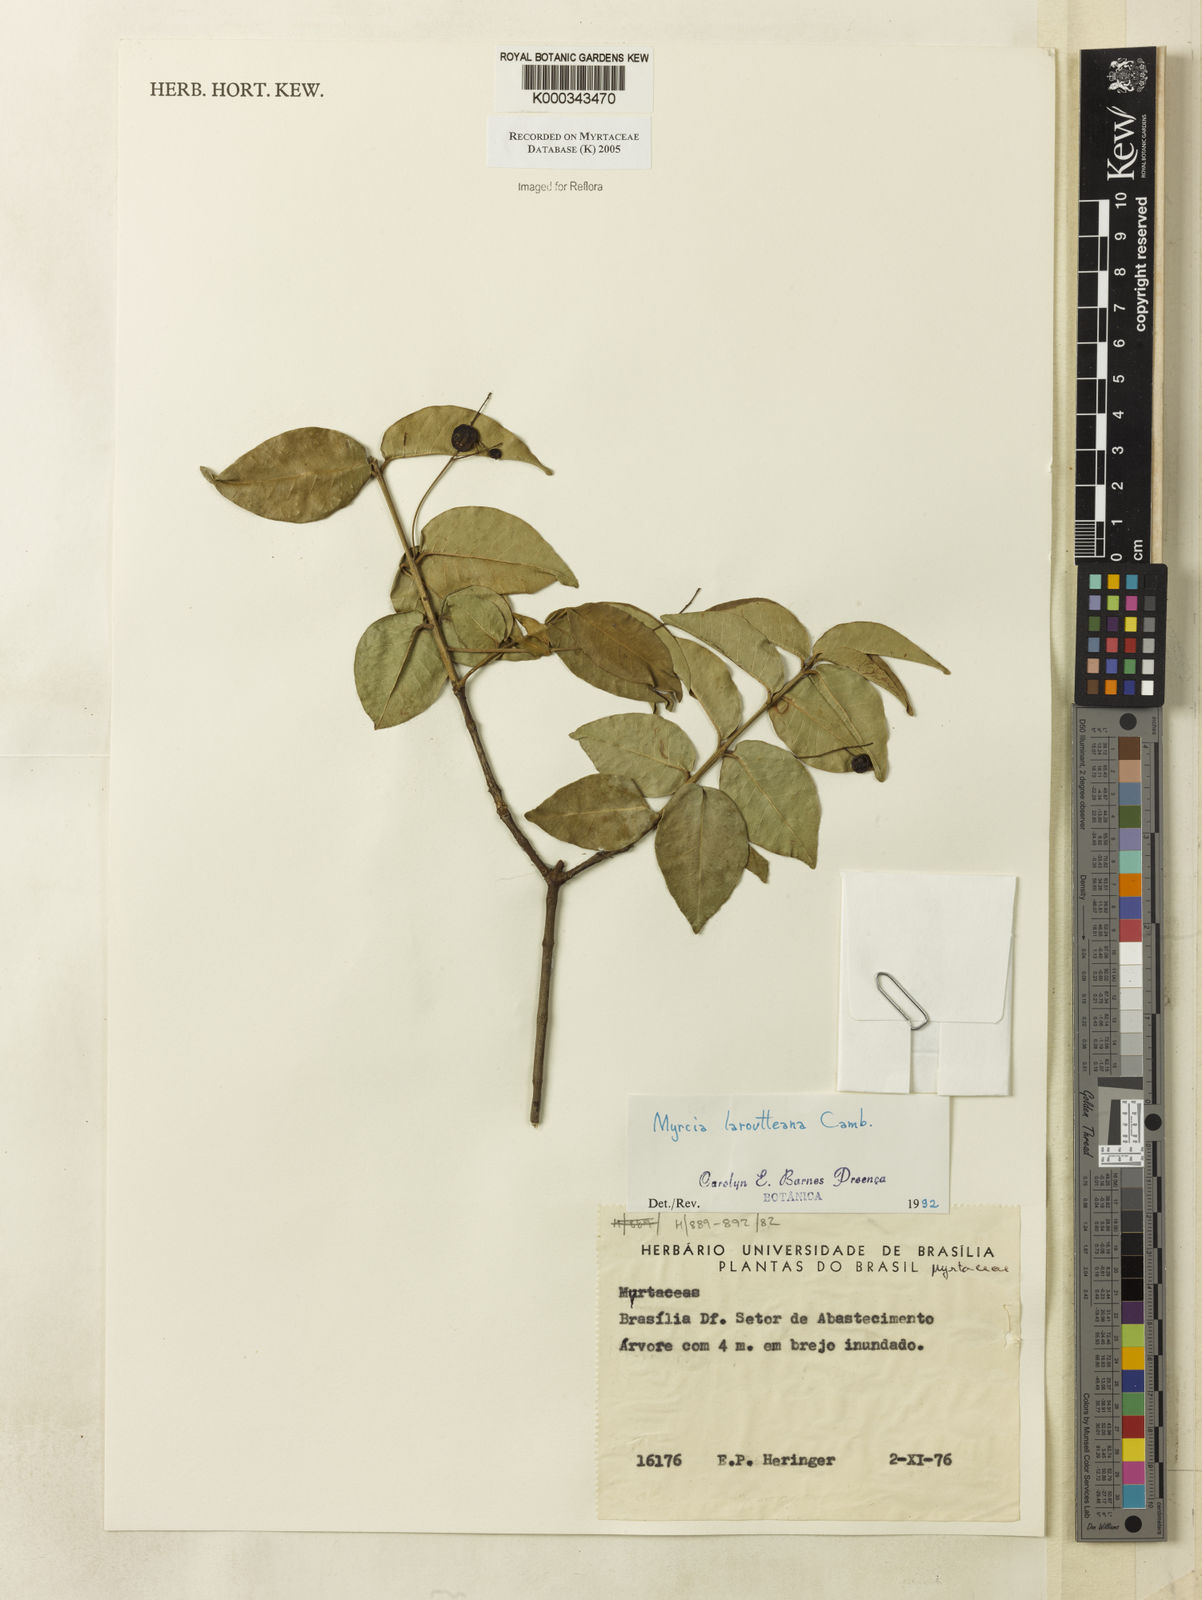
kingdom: Plantae
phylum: Tracheophyta
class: Magnoliopsida
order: Myrtales
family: Myrtaceae
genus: Myrcia
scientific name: Myrcia laruotteana
